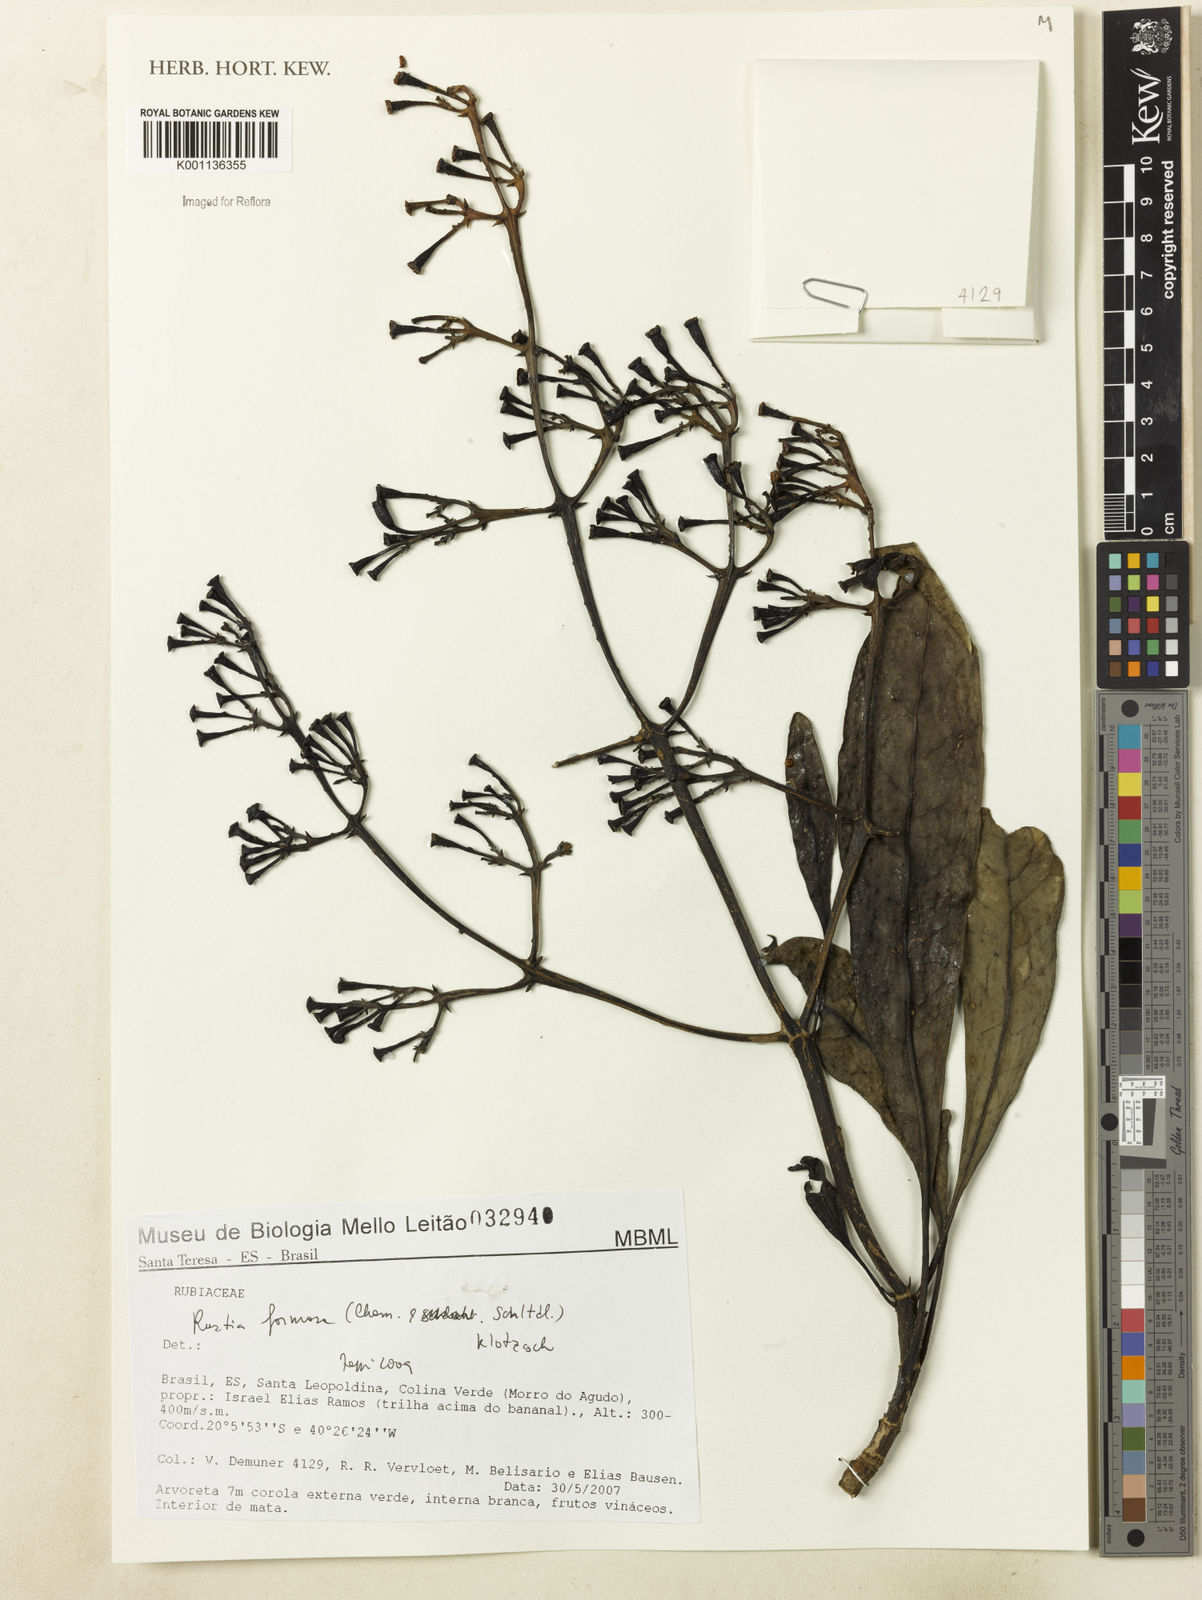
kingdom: Plantae
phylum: Tracheophyta
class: Magnoliopsida
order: Gentianales
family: Rubiaceae
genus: Rustia
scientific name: Rustia formosa
